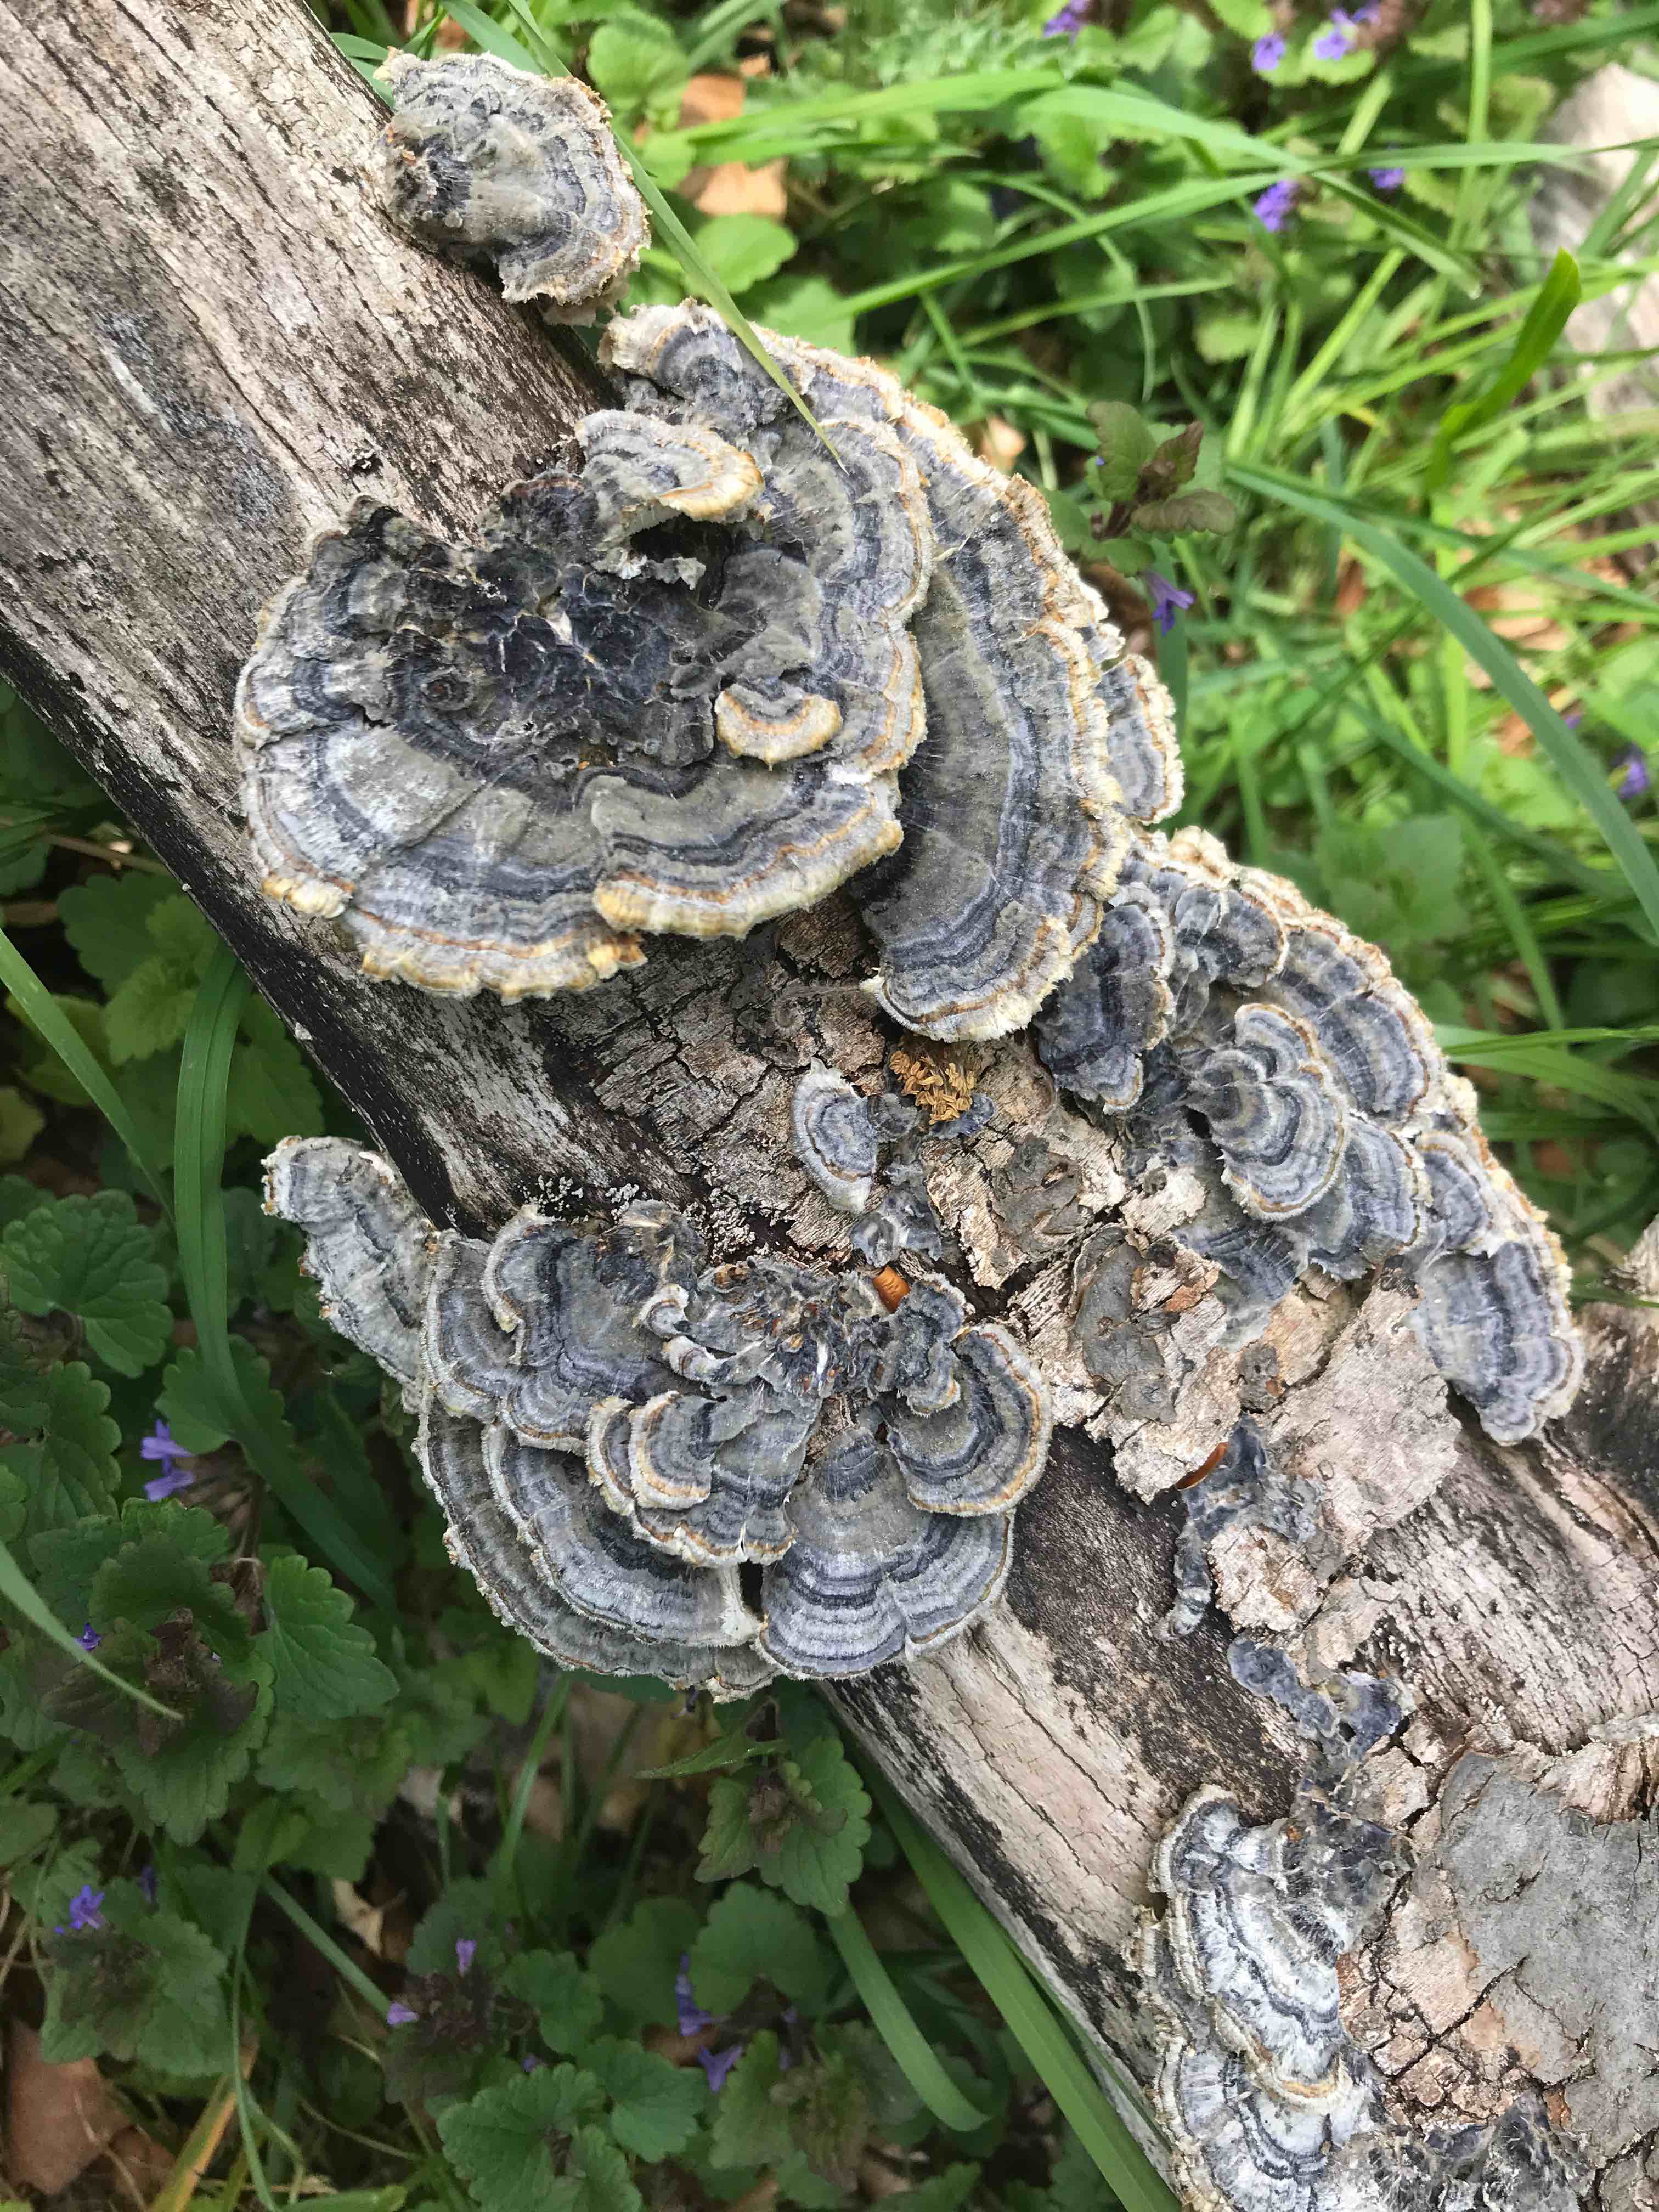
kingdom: Fungi
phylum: Basidiomycota
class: Agaricomycetes
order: Polyporales
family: Polyporaceae
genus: Trametes
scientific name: Trametes versicolor
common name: broget læderporesvamp
